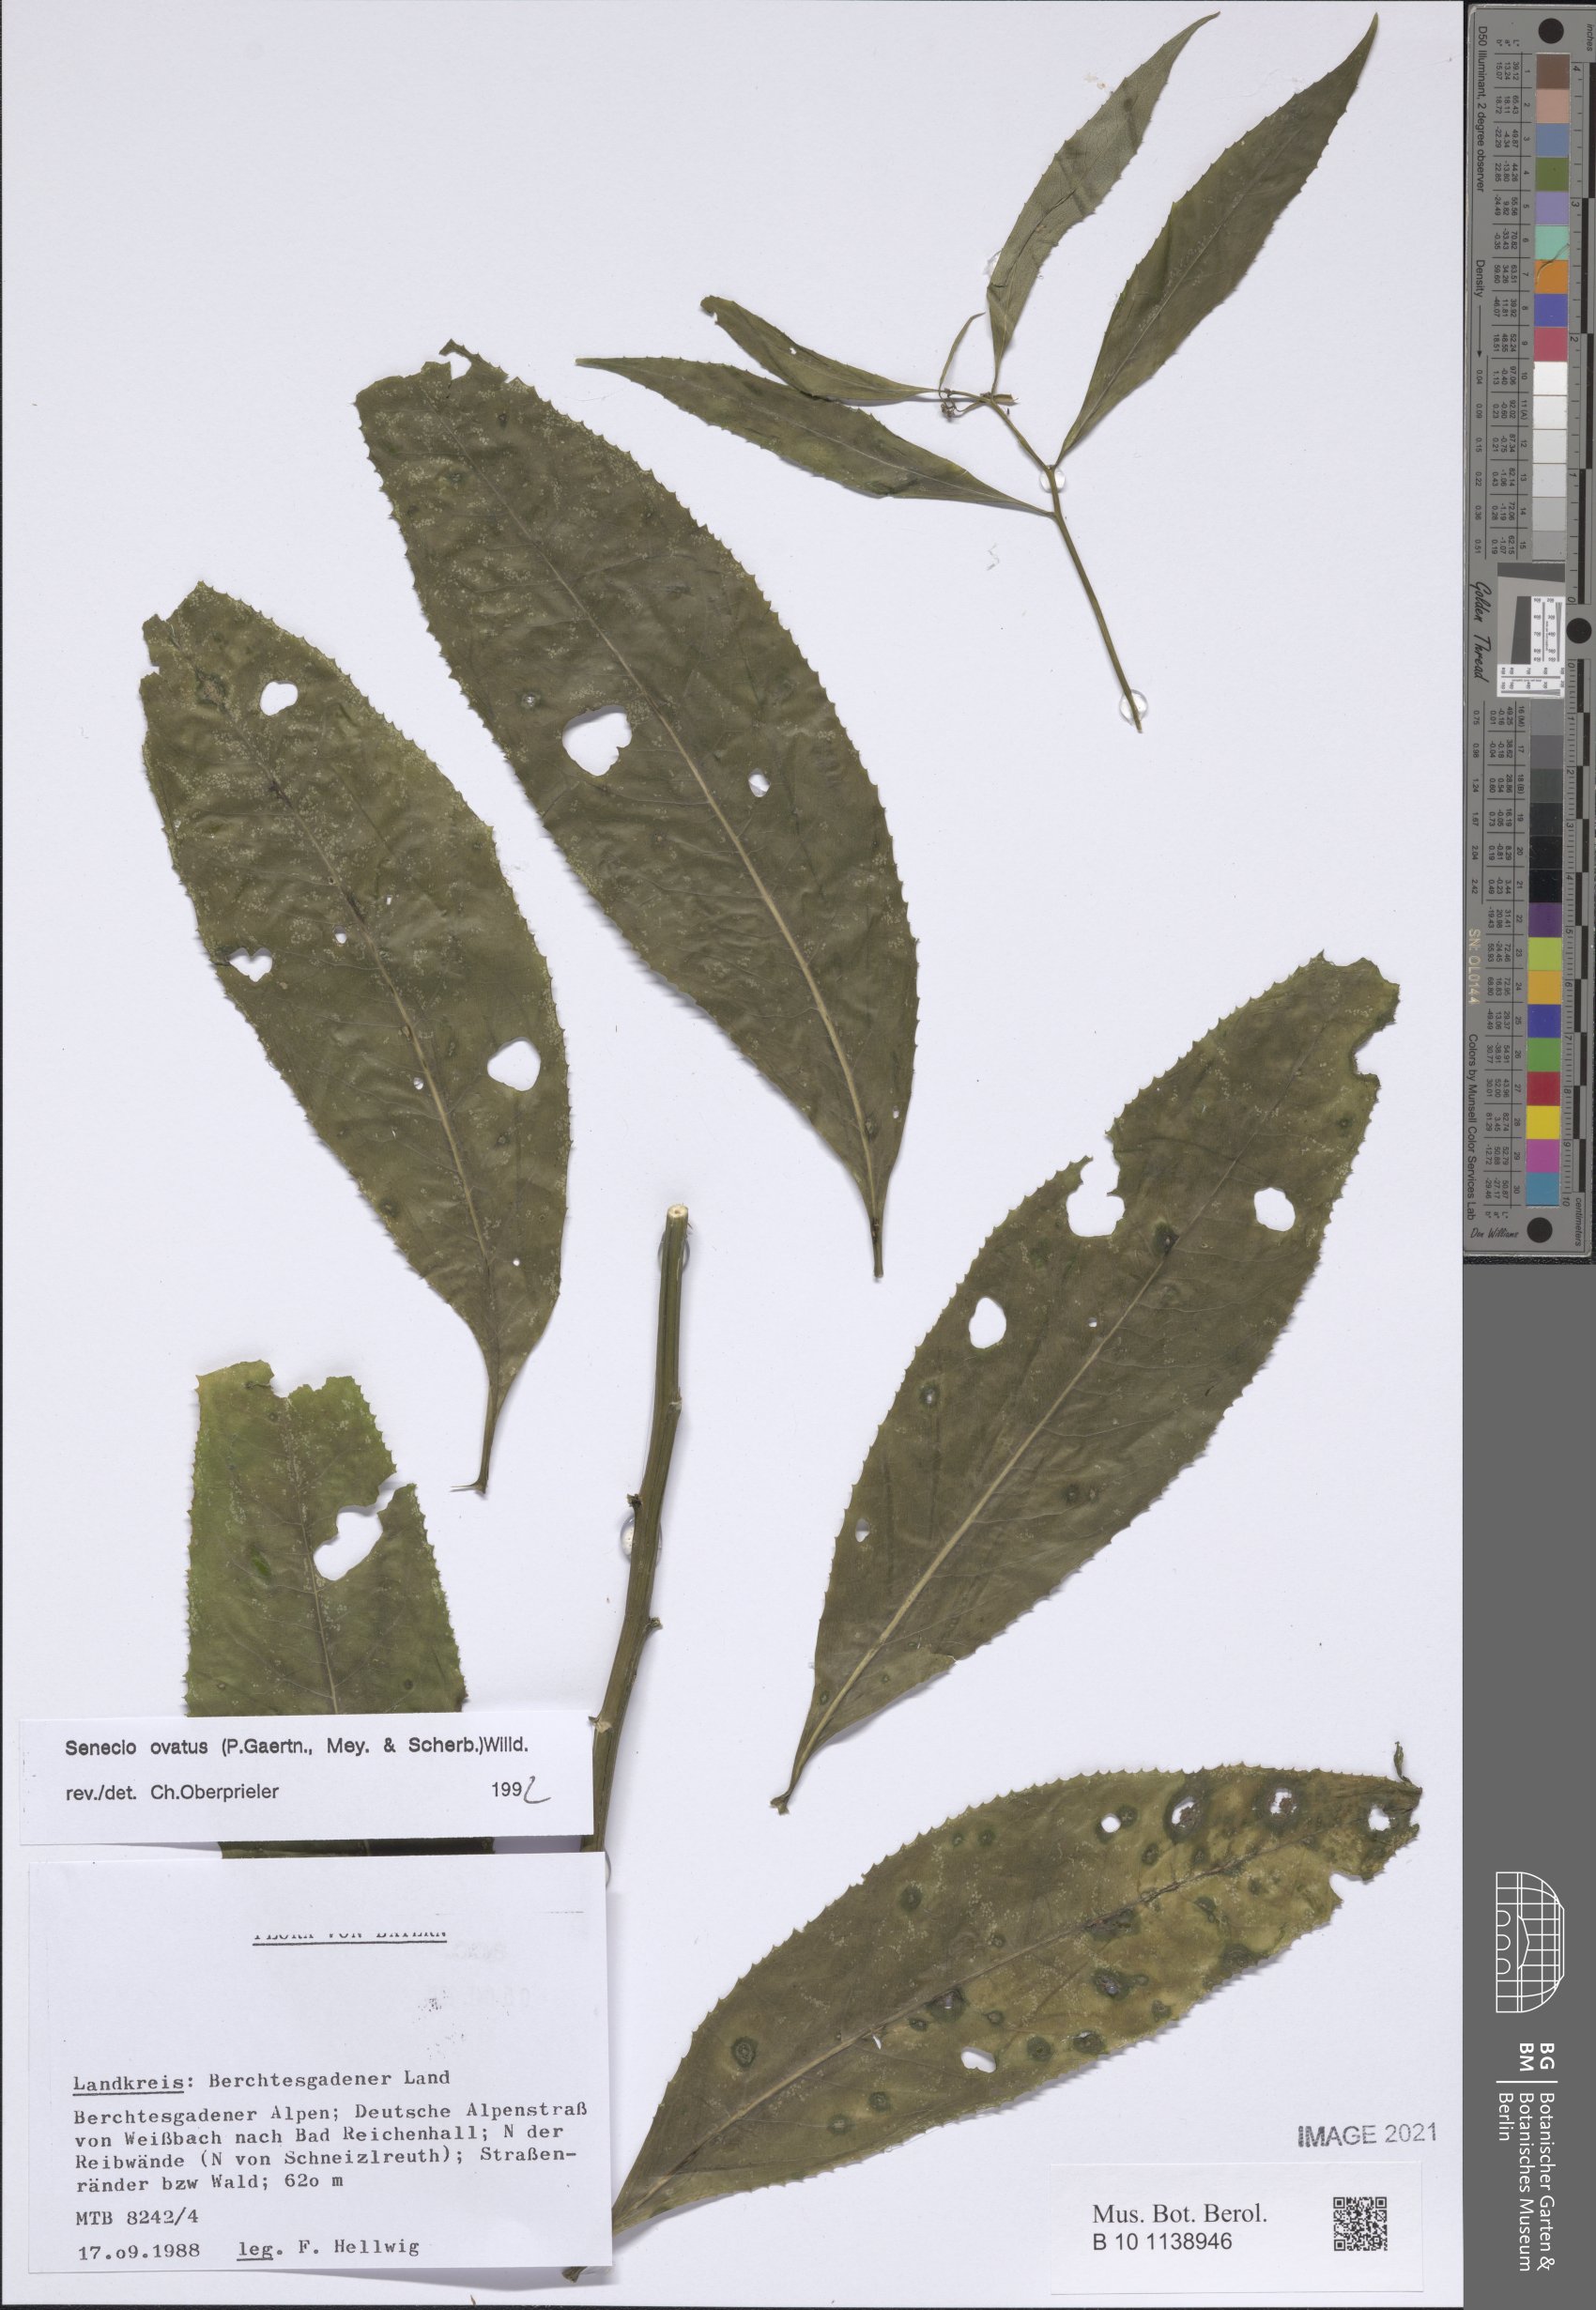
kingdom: Plantae
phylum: Tracheophyta
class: Magnoliopsida
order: Asterales
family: Asteraceae
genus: Senecio
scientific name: Senecio ovatus
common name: Wood ragwort
